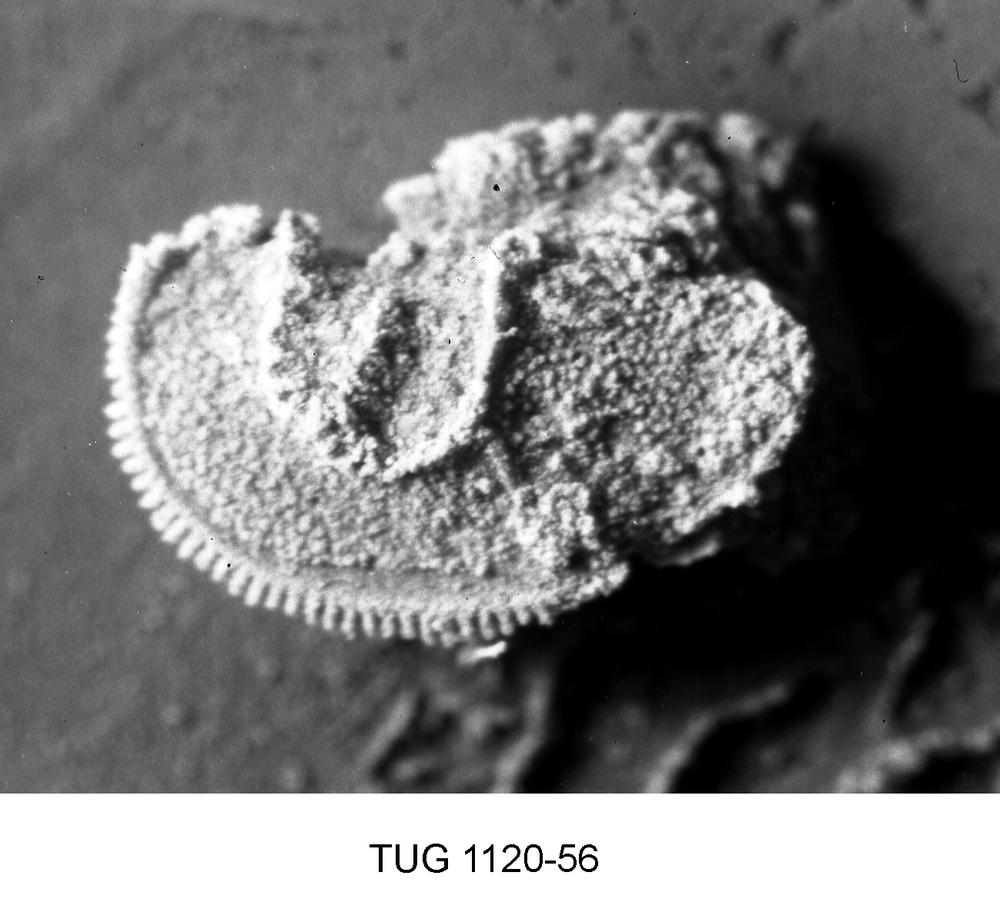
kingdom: Animalia
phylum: Arthropoda
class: Ostracoda
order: Palaeocopida
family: Ctenonotellidae
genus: Rakverella
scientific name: Rakverella
